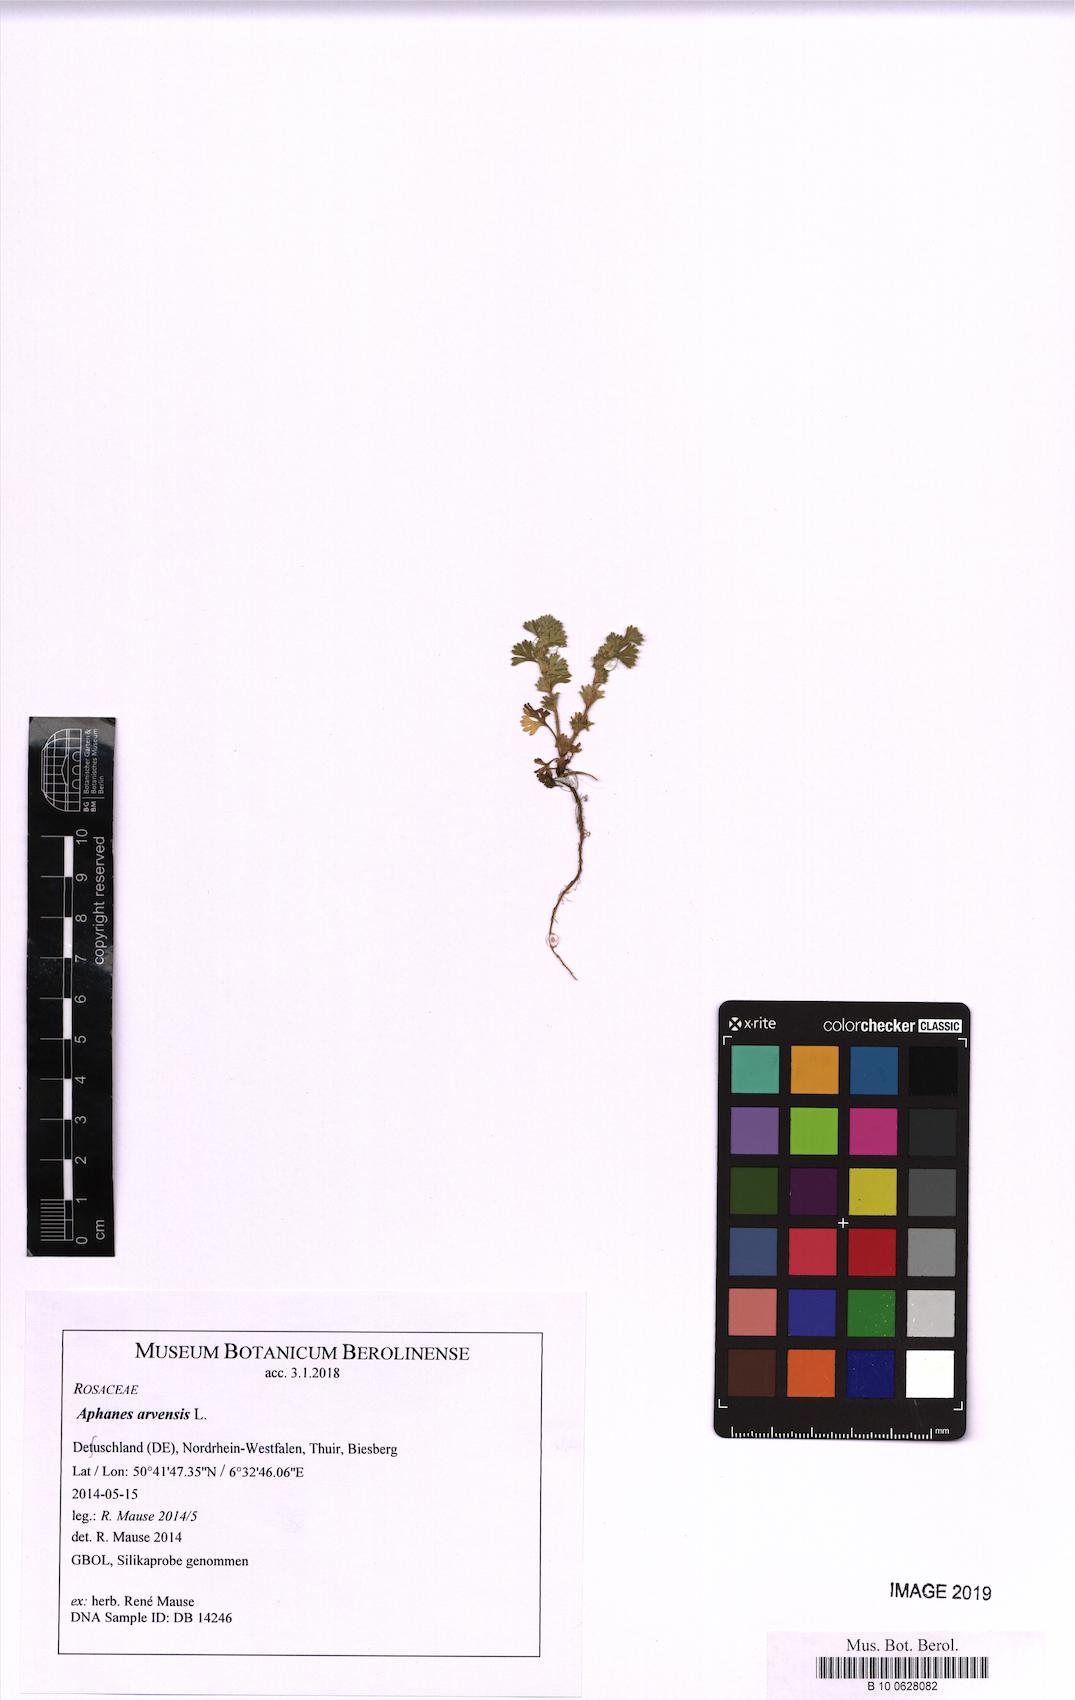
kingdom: Plantae
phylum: Tracheophyta
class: Magnoliopsida
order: Rosales
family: Rosaceae
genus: Aphanes
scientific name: Aphanes arvensis
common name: Parsley-piert
